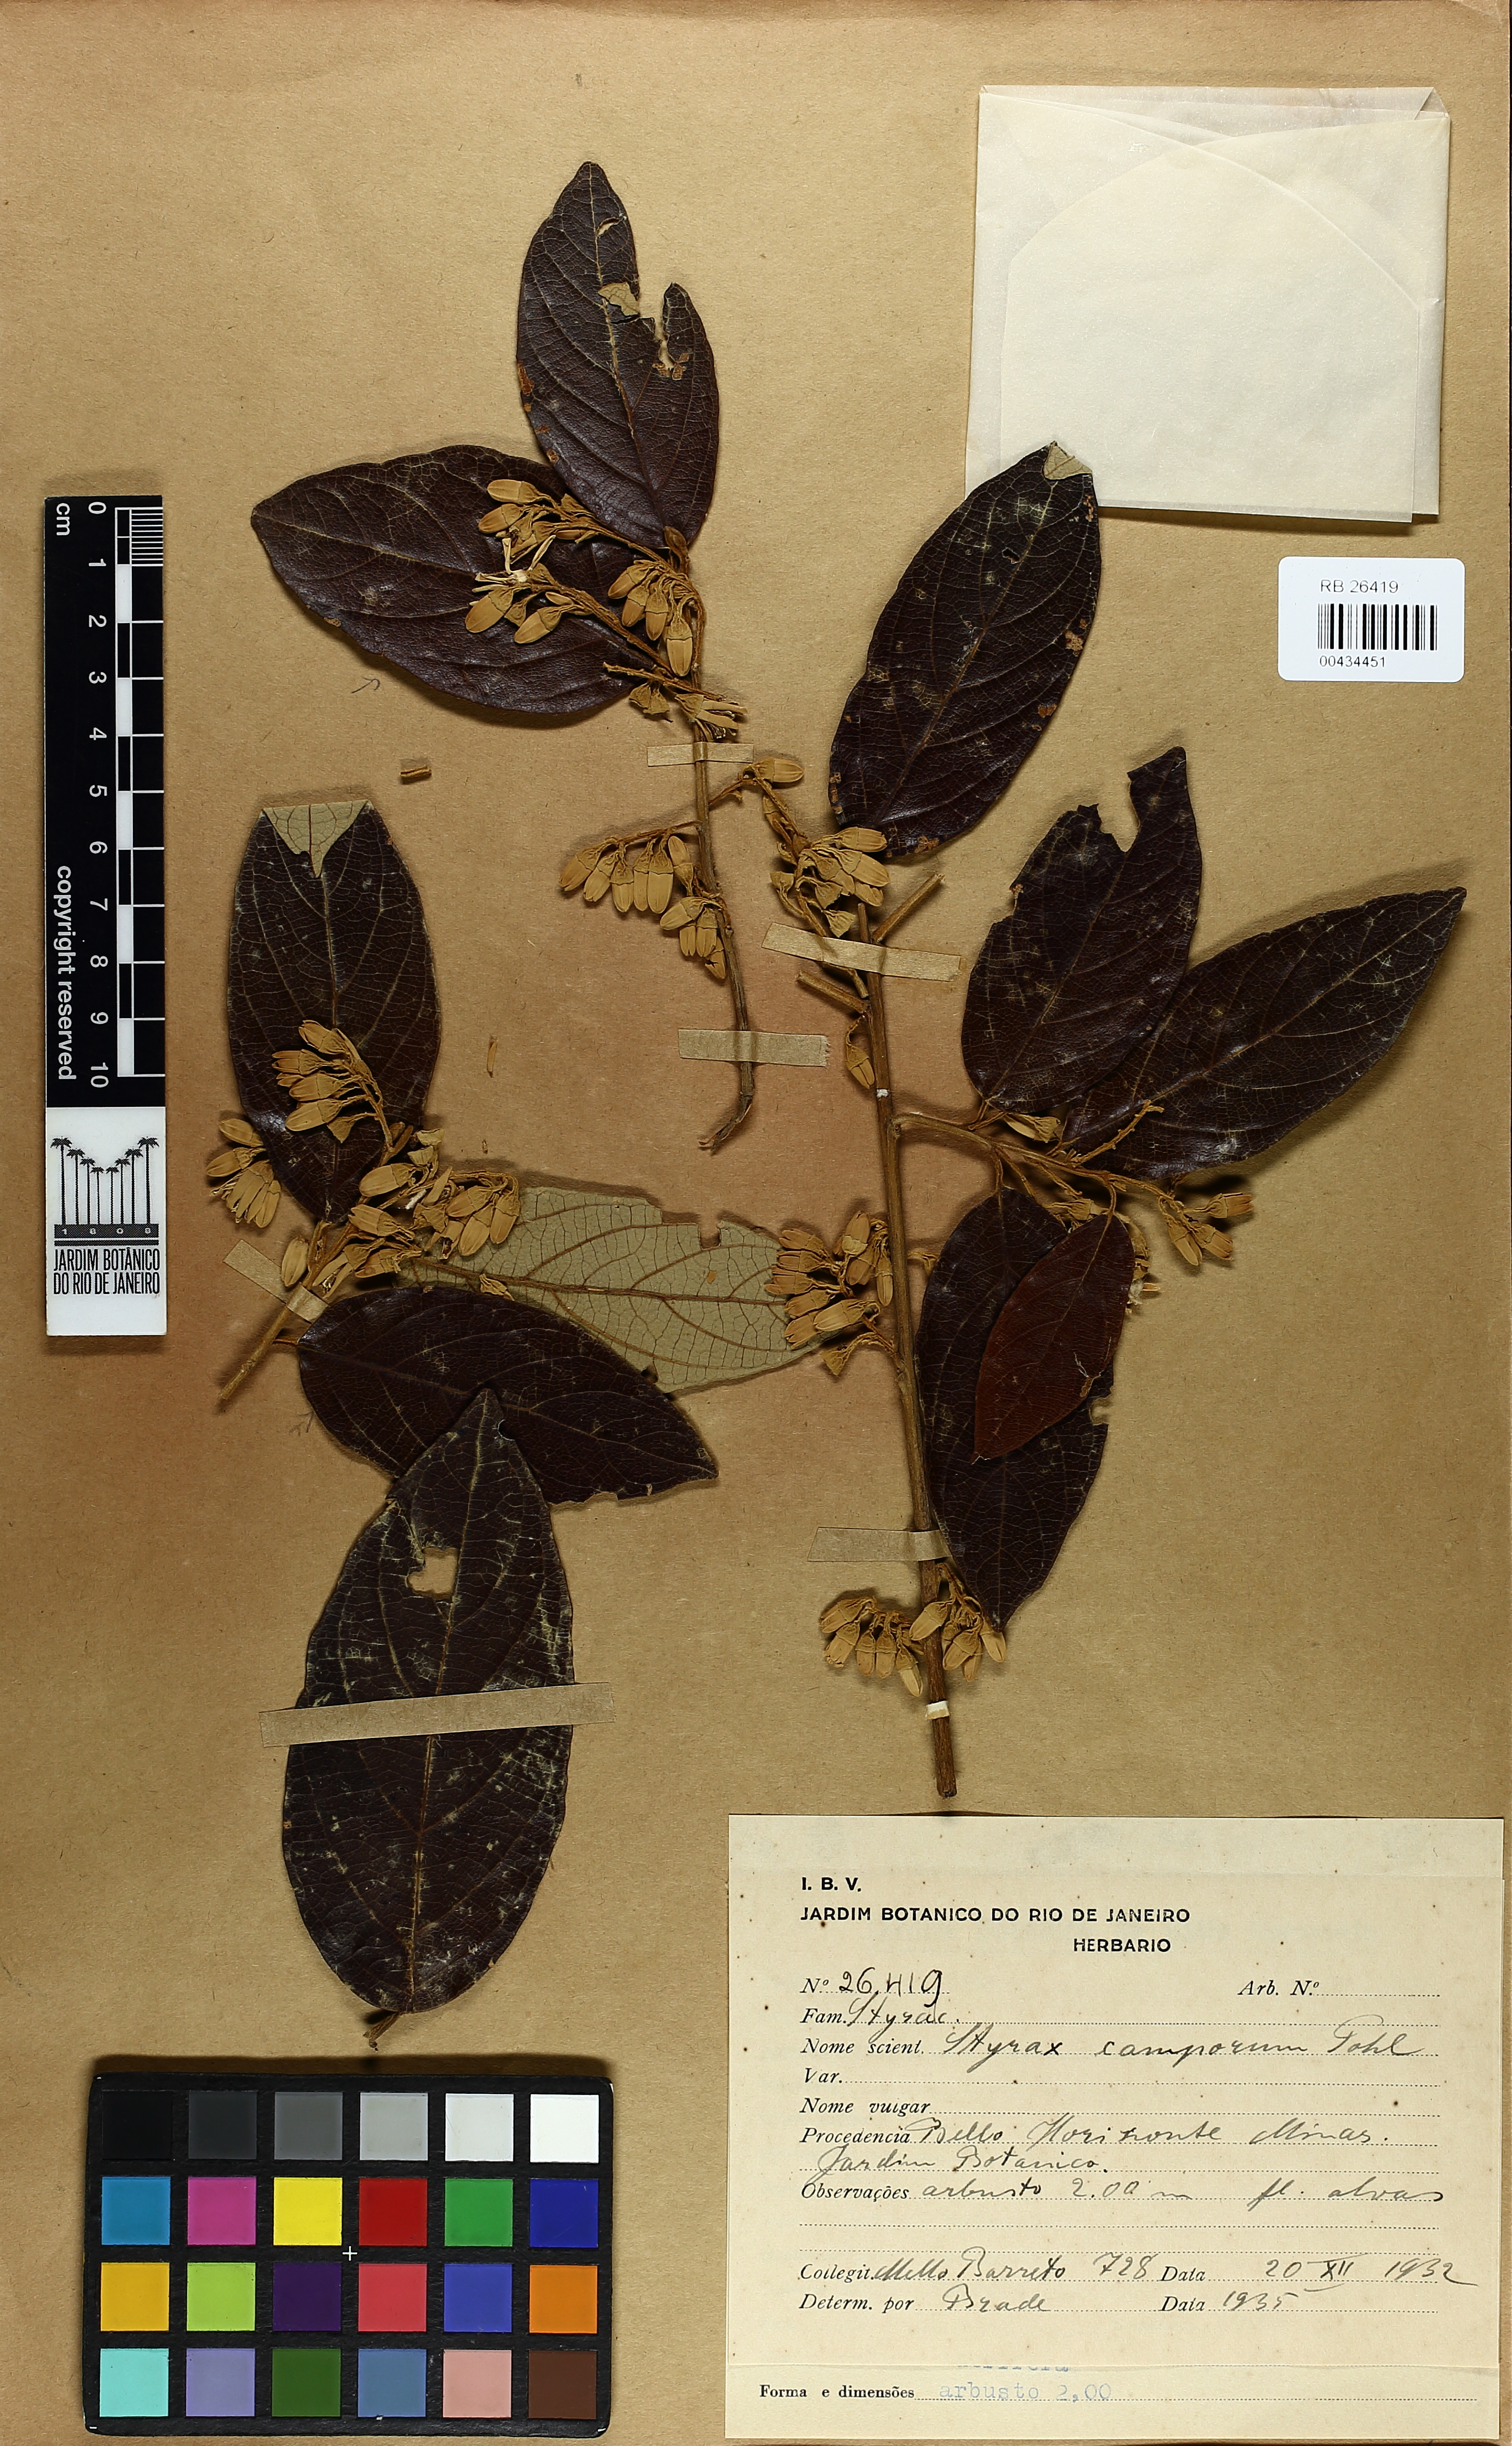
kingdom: Plantae
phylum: Tracheophyta
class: Magnoliopsida
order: Ericales
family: Styracaceae
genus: Styrax
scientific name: Styrax camporum
